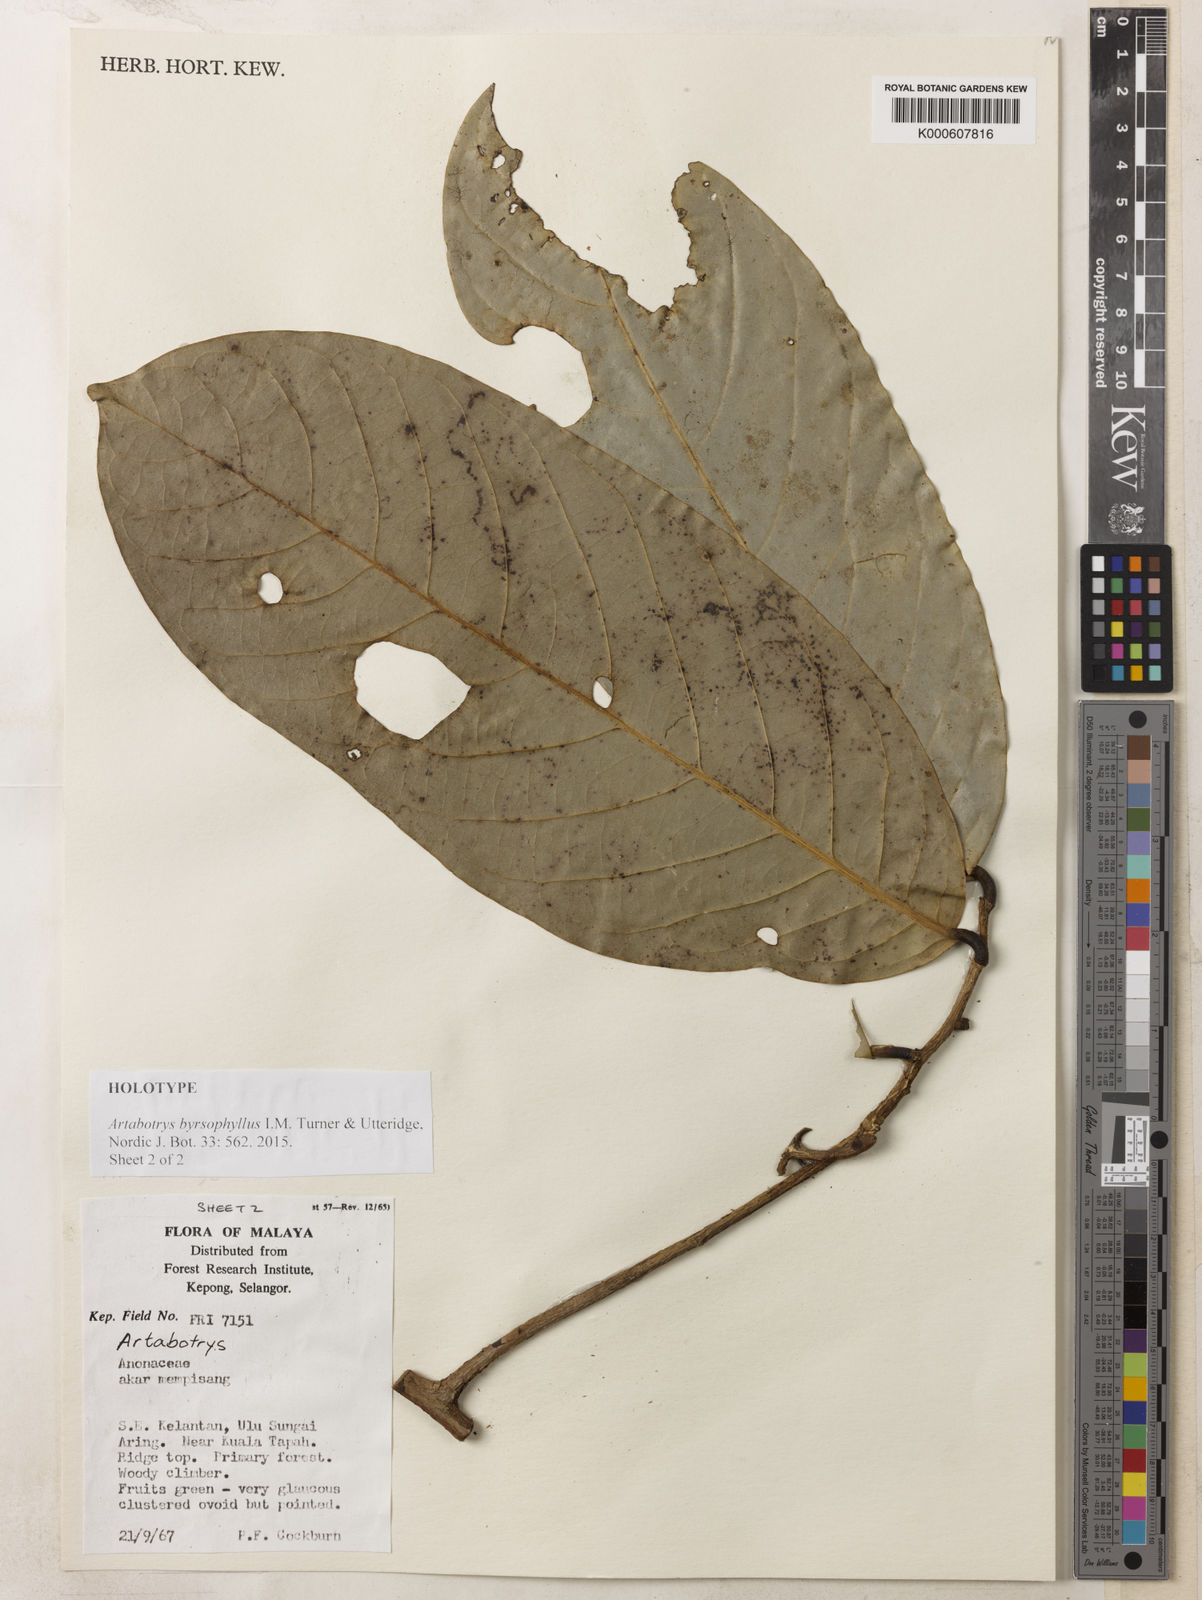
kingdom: Plantae
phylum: Tracheophyta
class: Magnoliopsida
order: Magnoliales
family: Annonaceae
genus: Artabotrys
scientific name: Artabotrys byrsophyllus
